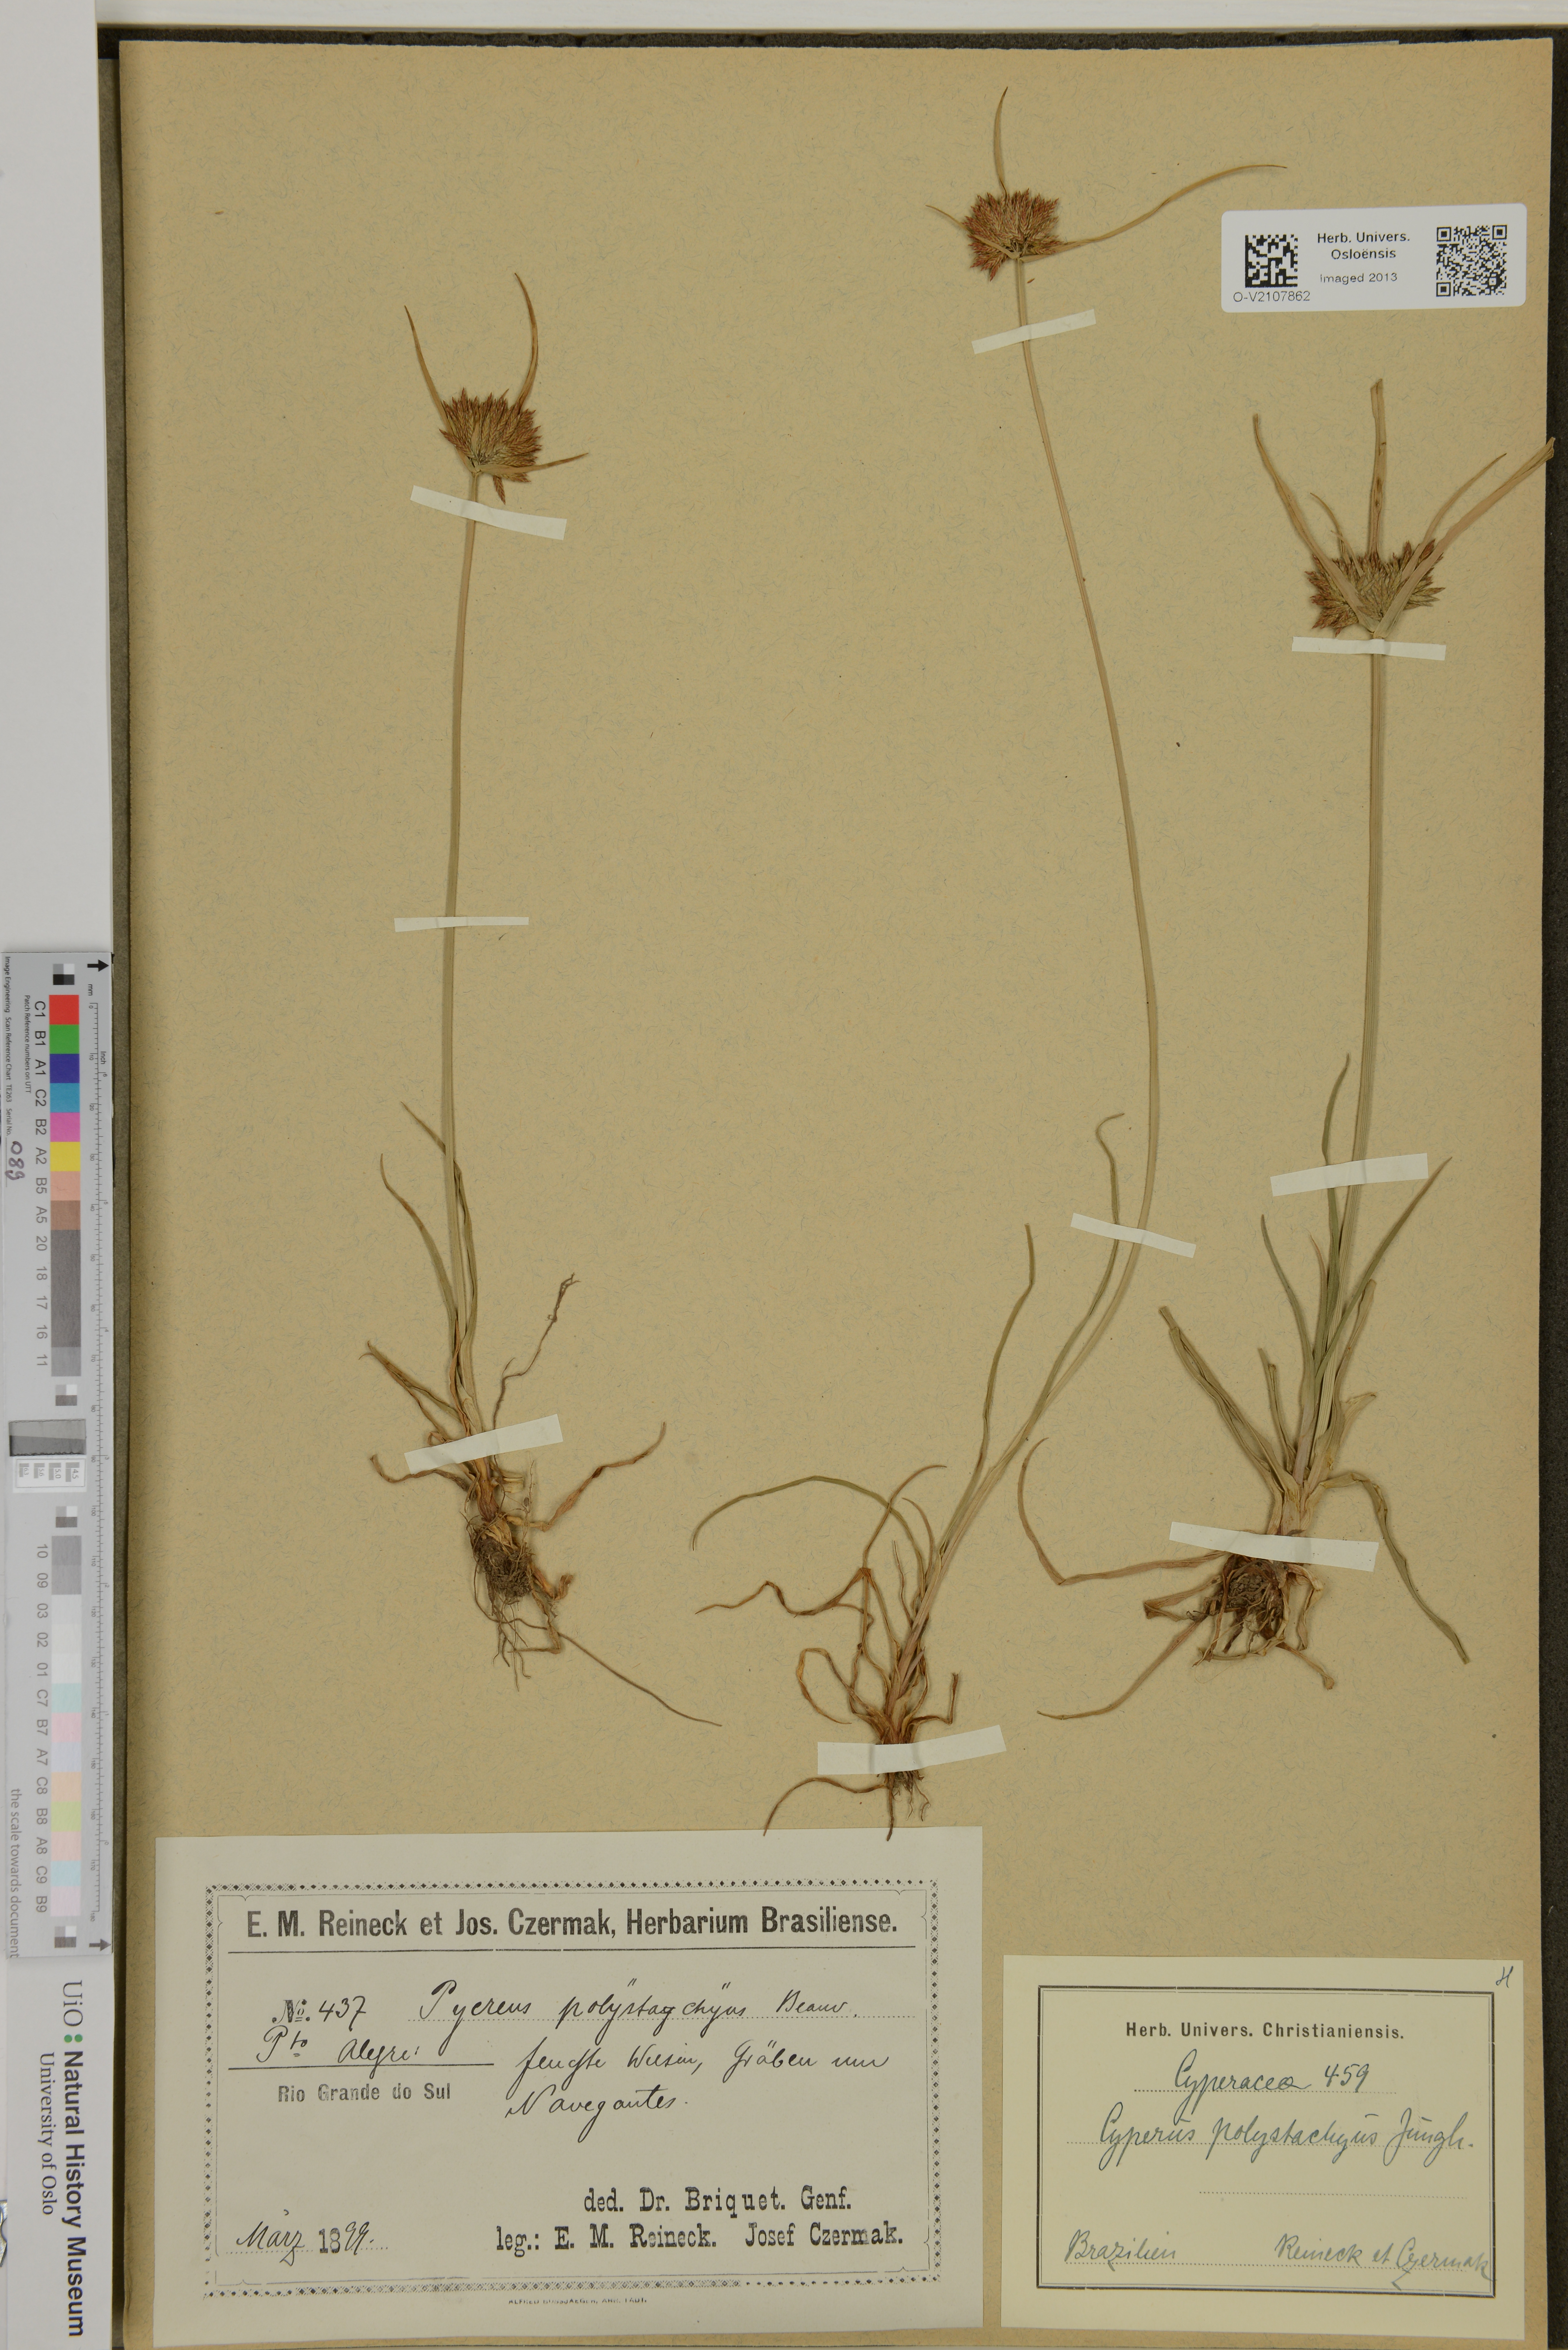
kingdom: Plantae
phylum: Tracheophyta
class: Liliopsida
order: Poales
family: Cyperaceae
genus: Cyperus
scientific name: Cyperus polystachyus
